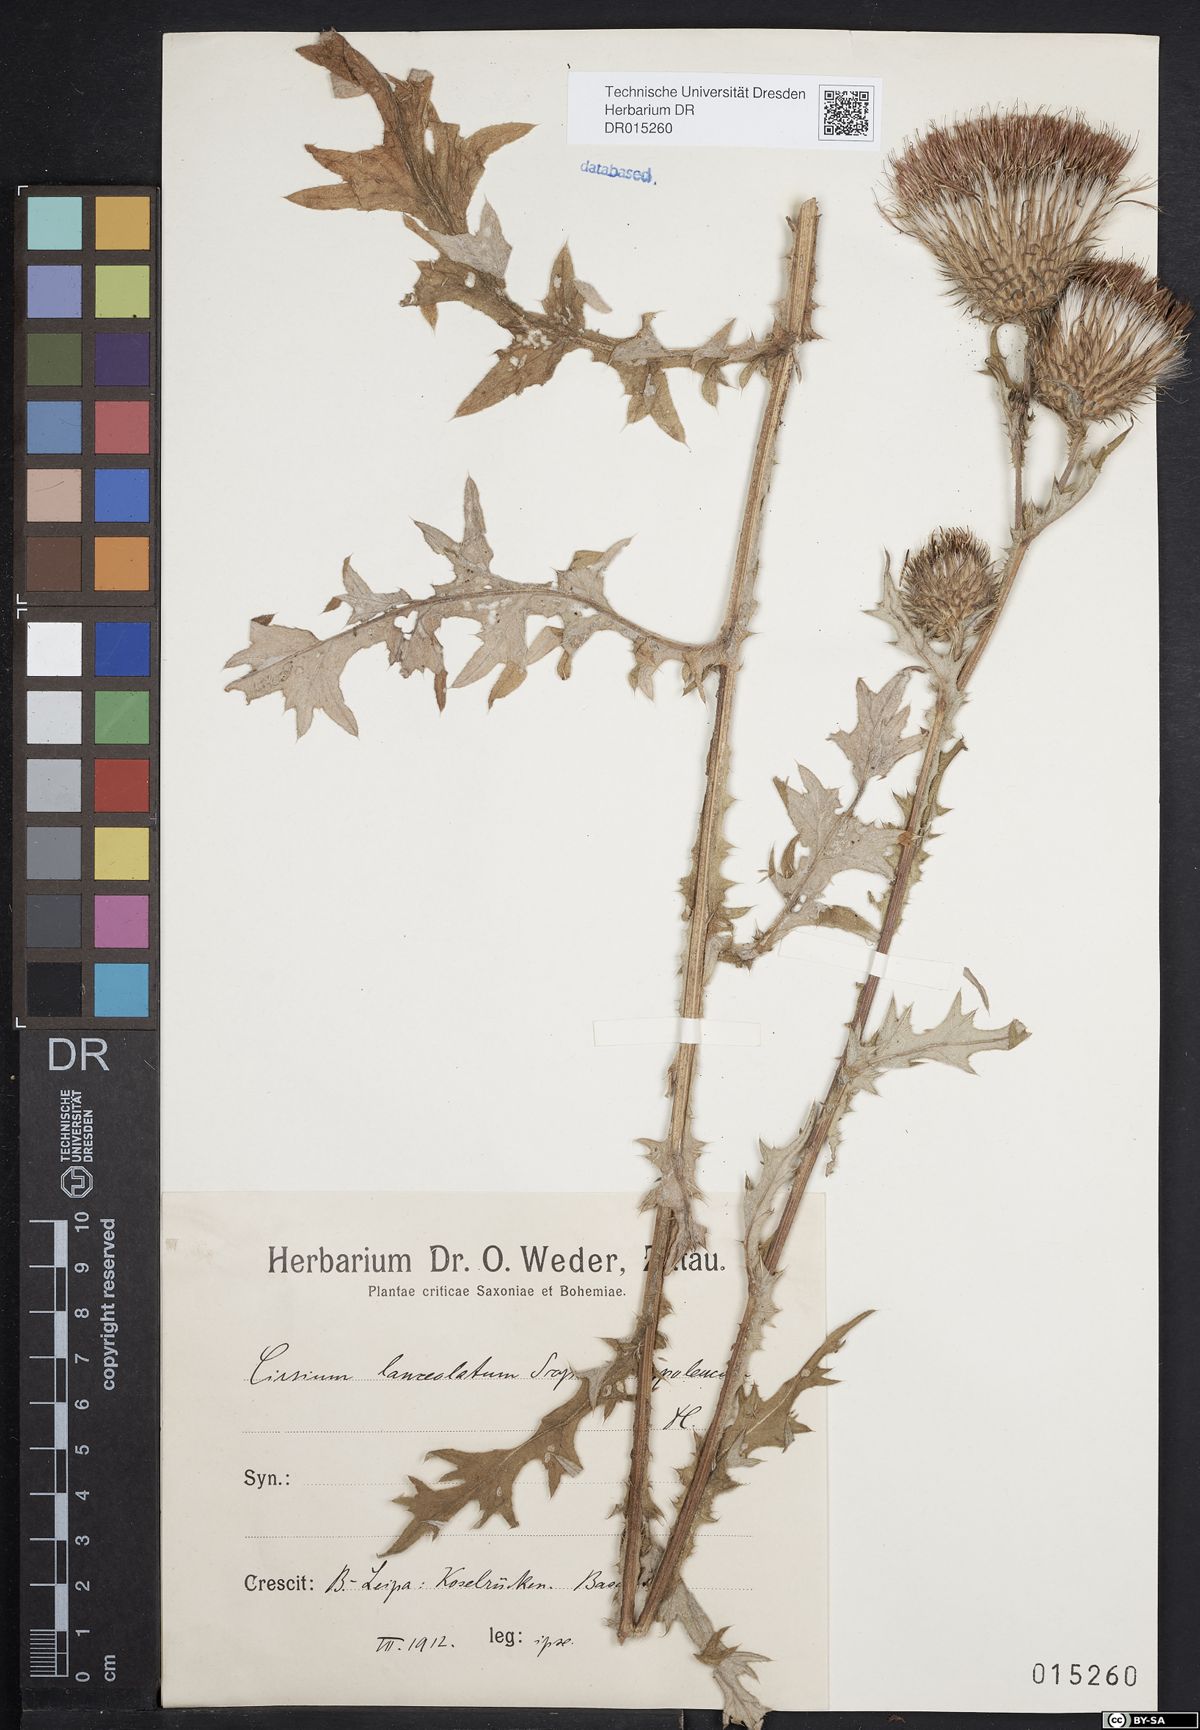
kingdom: Plantae
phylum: Tracheophyta
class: Magnoliopsida
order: Asterales
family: Asteraceae
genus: Cirsium
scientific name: Cirsium vulgare
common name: Bull thistle
